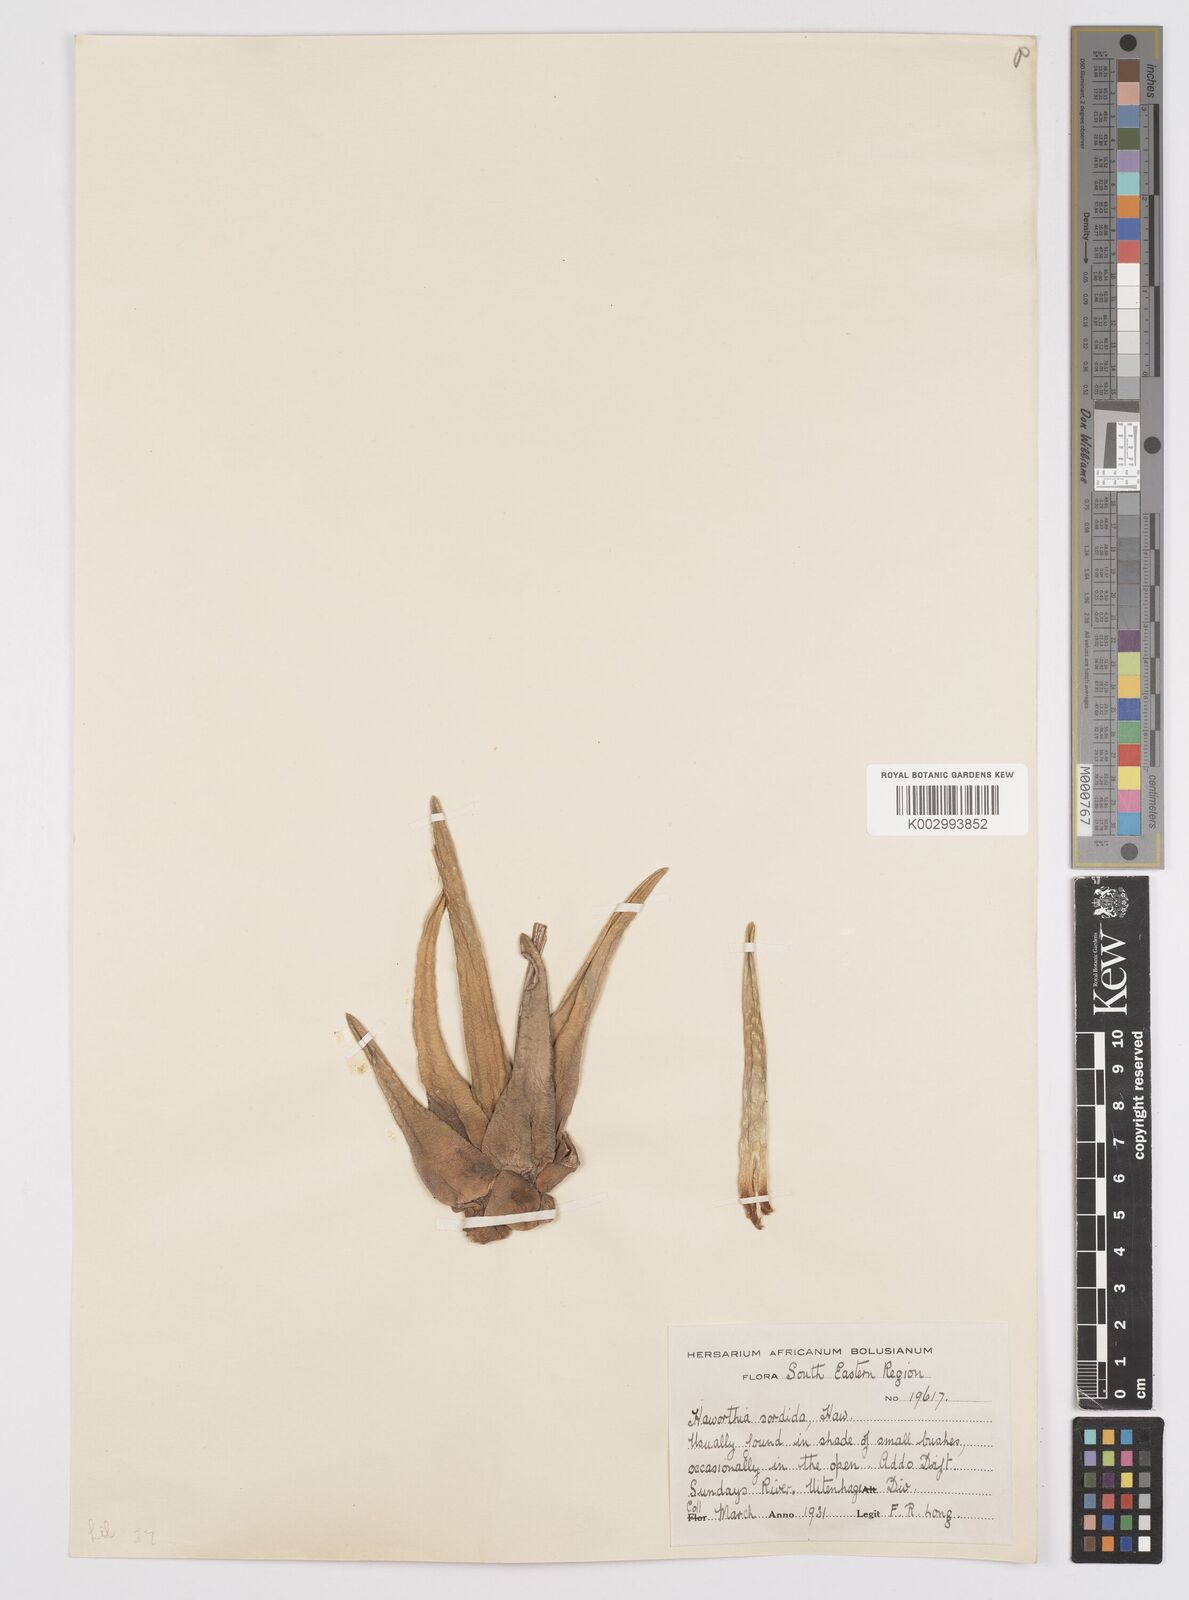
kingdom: Plantae
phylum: Tracheophyta
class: Liliopsida
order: Asparagales
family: Asphodelaceae
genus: Haworthia
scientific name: Haworthia arachnoidea
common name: Cobweb-aloe
